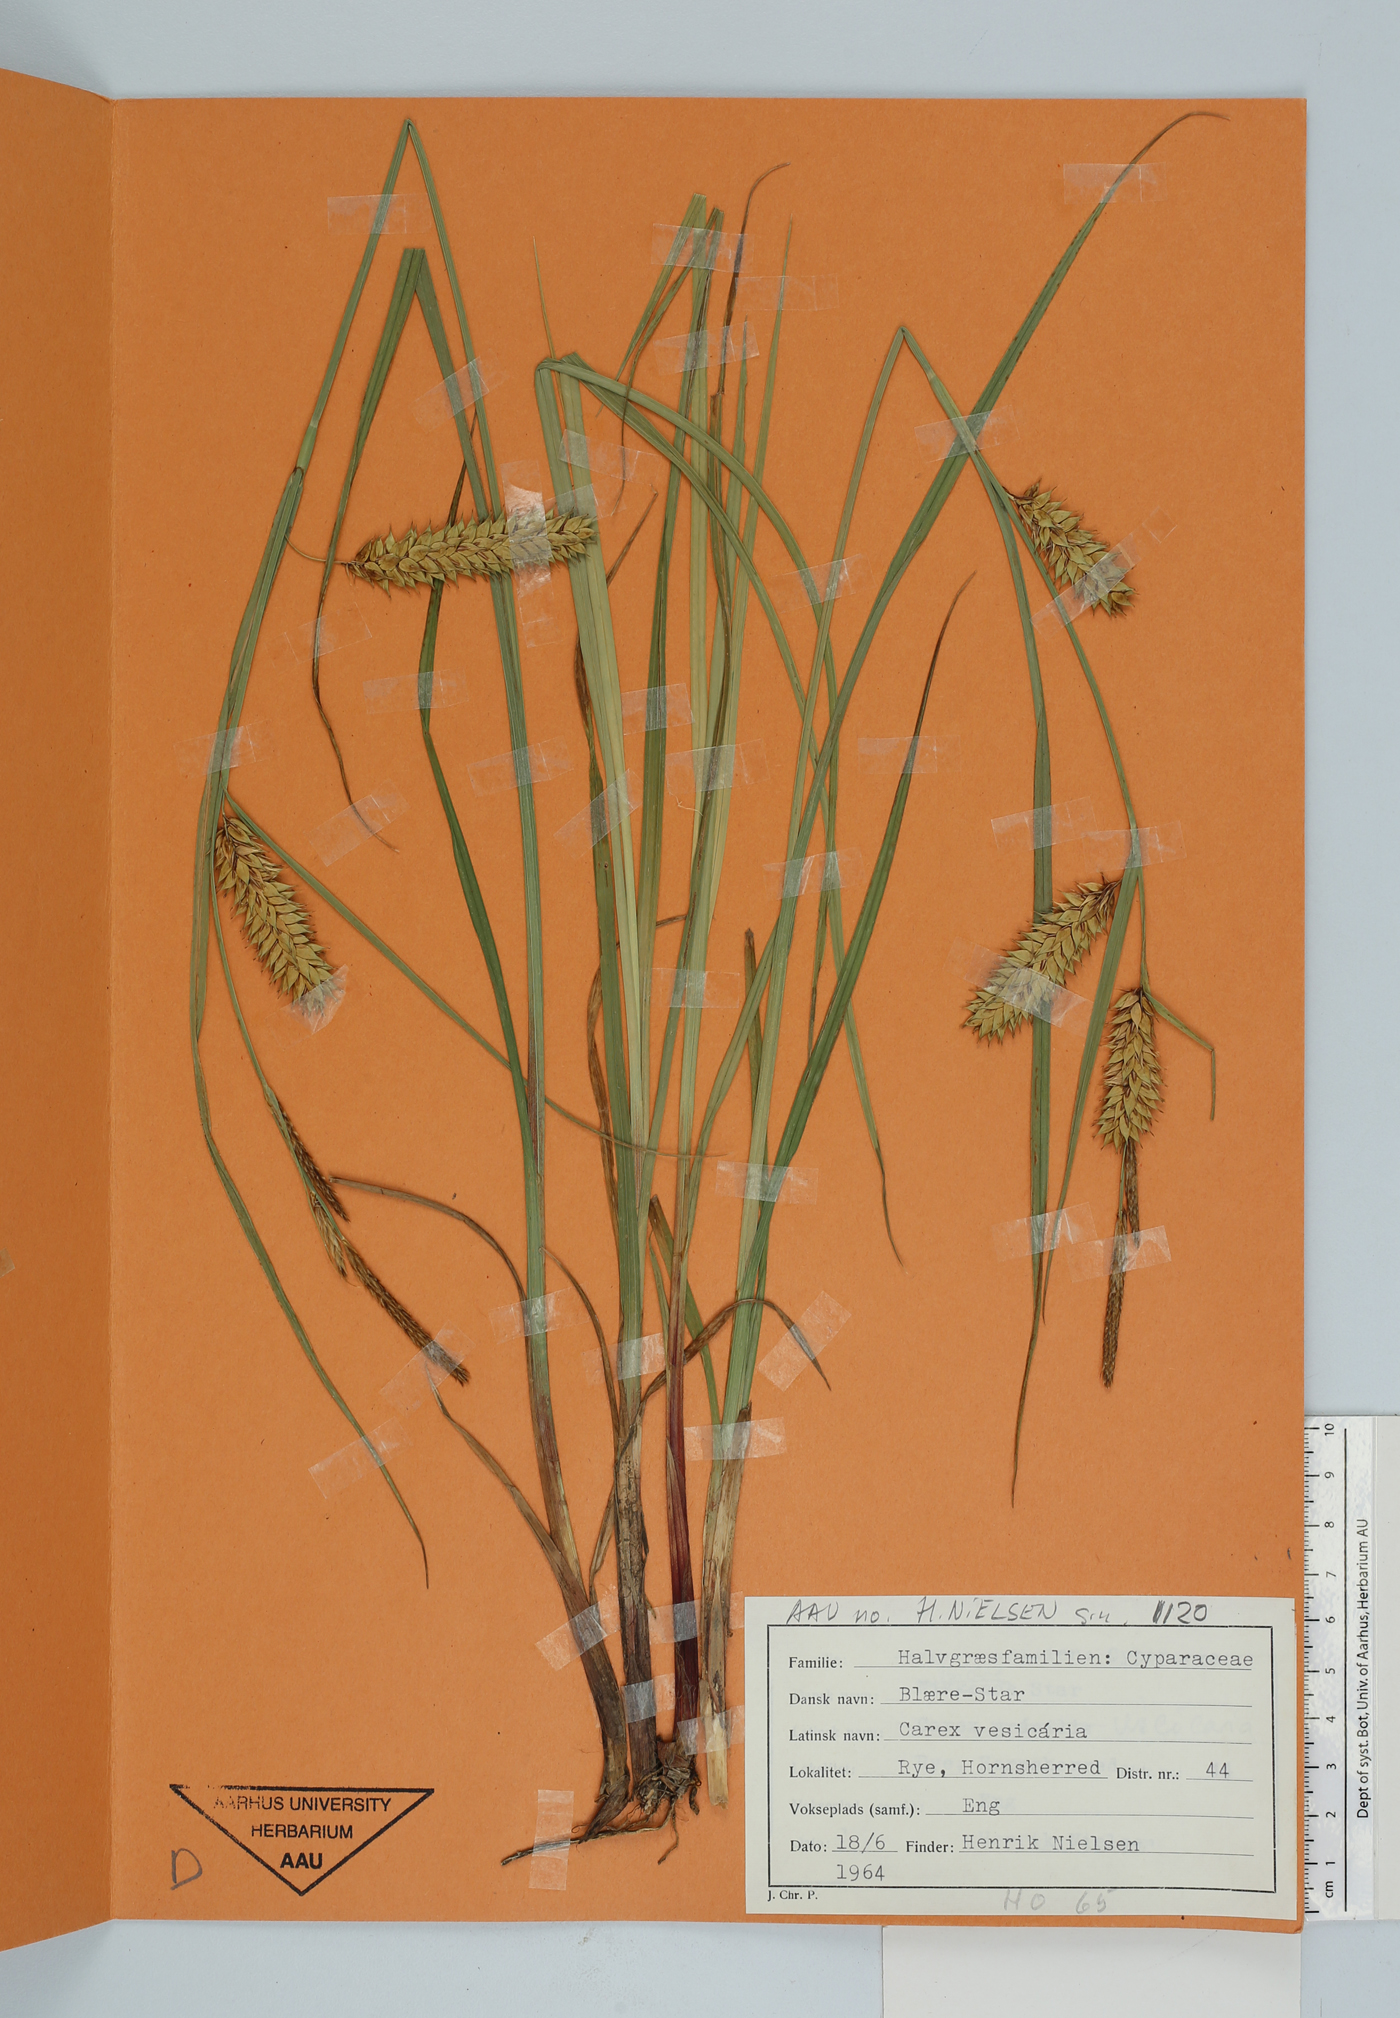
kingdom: Plantae
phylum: Tracheophyta
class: Liliopsida
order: Poales
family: Cyperaceae
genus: Carex
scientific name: Carex vesicaria
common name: Bladder-sedge
